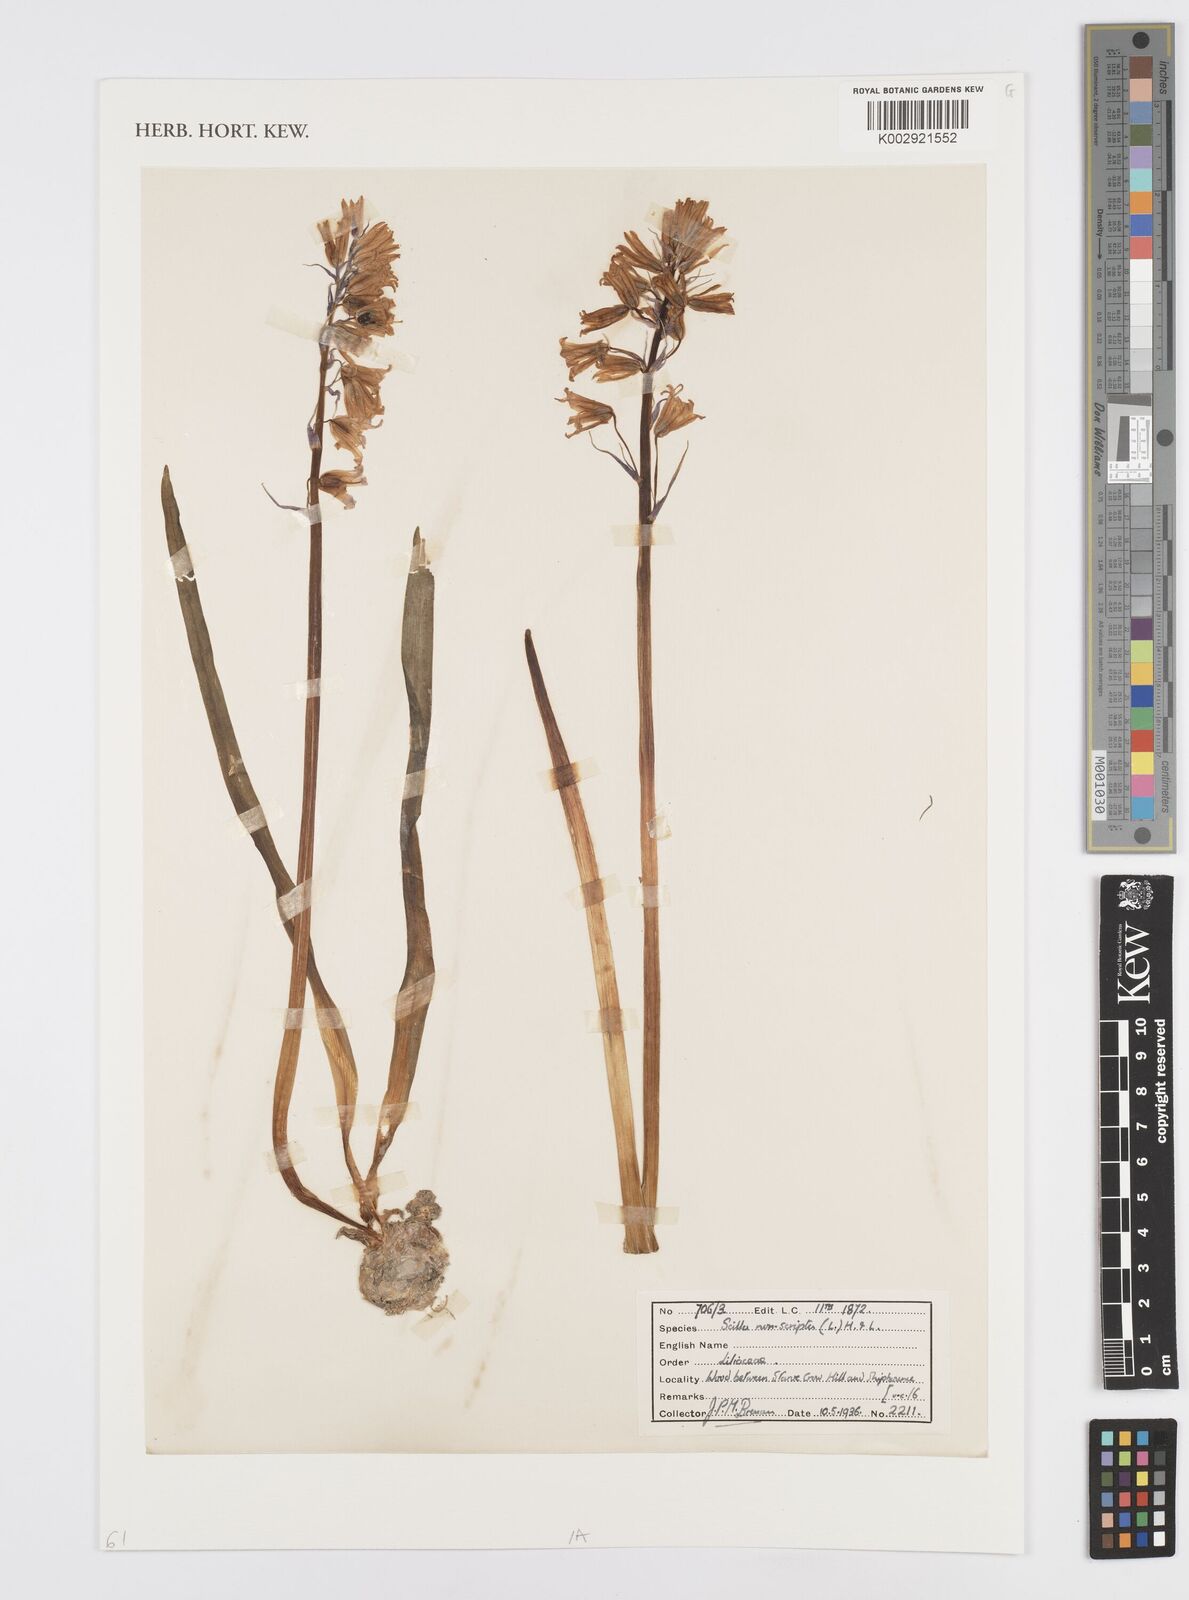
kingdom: Plantae
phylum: Tracheophyta
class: Liliopsida
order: Asparagales
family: Asparagaceae
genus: Hyacinthoides
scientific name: Hyacinthoides non-scripta
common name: Bluebell
